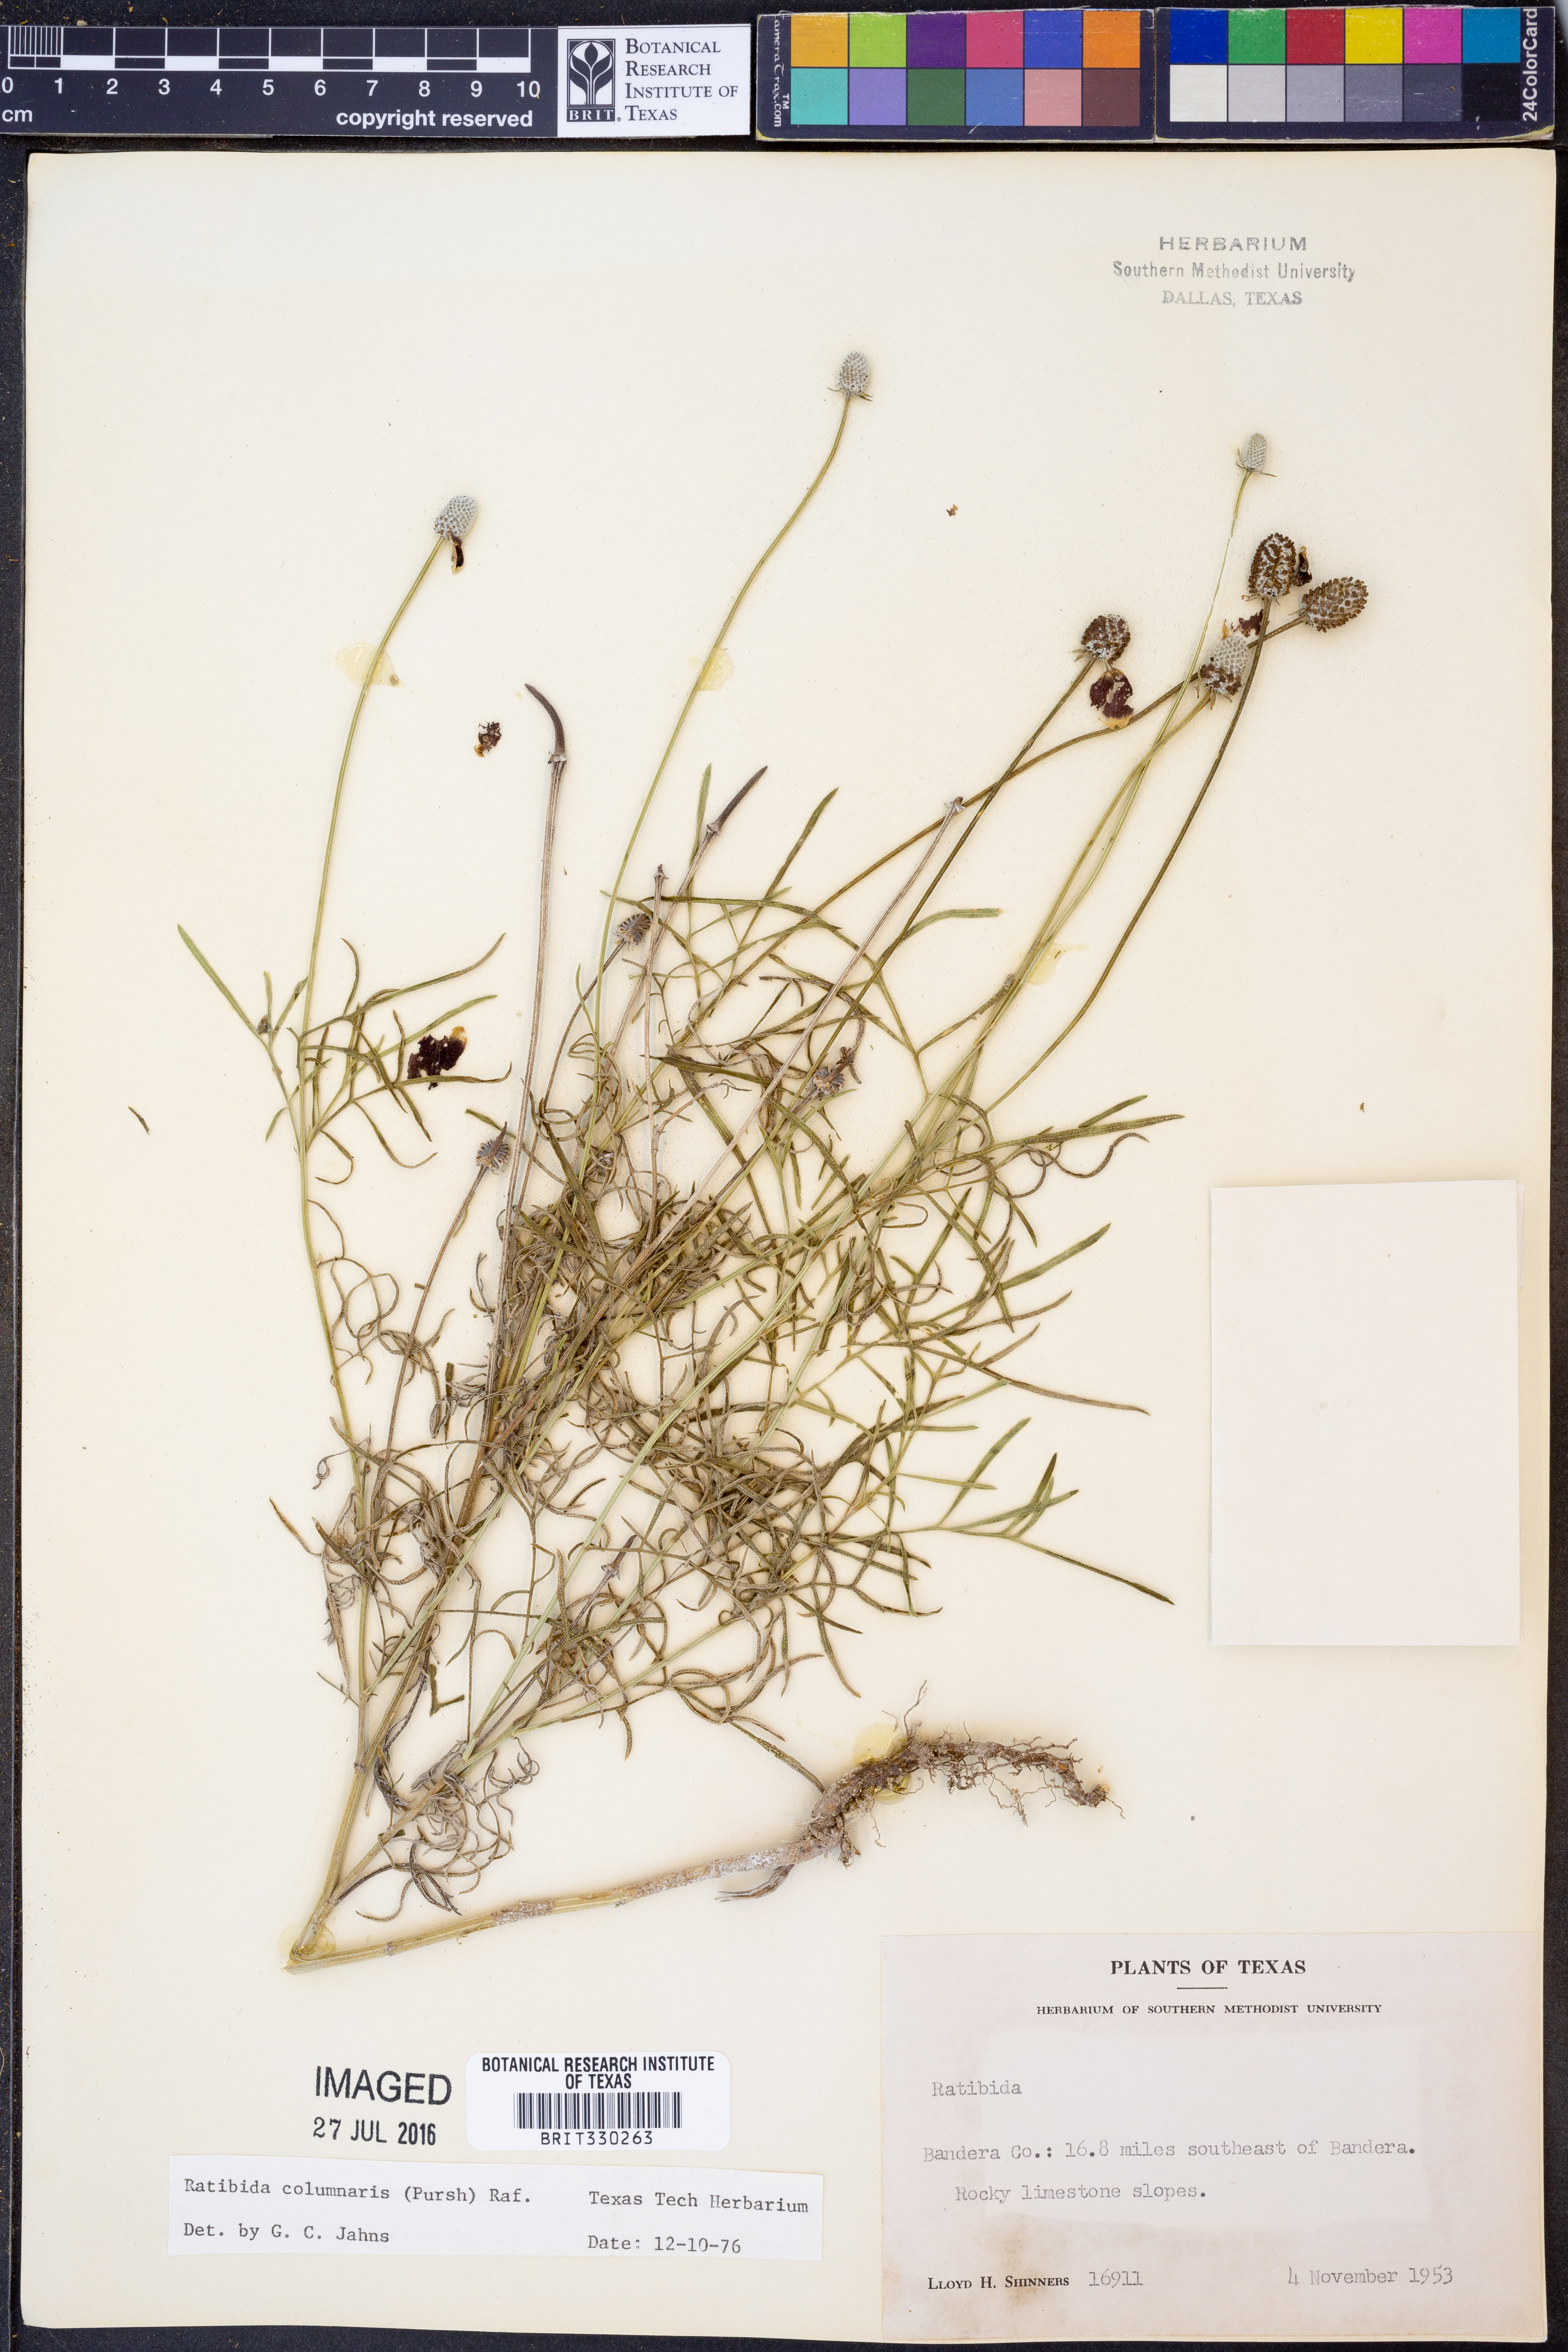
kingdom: Plantae
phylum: Tracheophyta
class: Magnoliopsida
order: Asterales
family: Asteraceae
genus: Ratibida
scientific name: Ratibida columnifera
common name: Prairie coneflower
